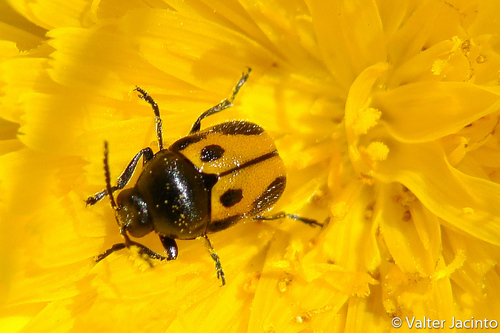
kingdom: Animalia
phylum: Arthropoda
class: Insecta
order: Coleoptera
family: Chrysomelidae
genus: Cryptocephalus
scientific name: Cryptocephalus rugicollis
